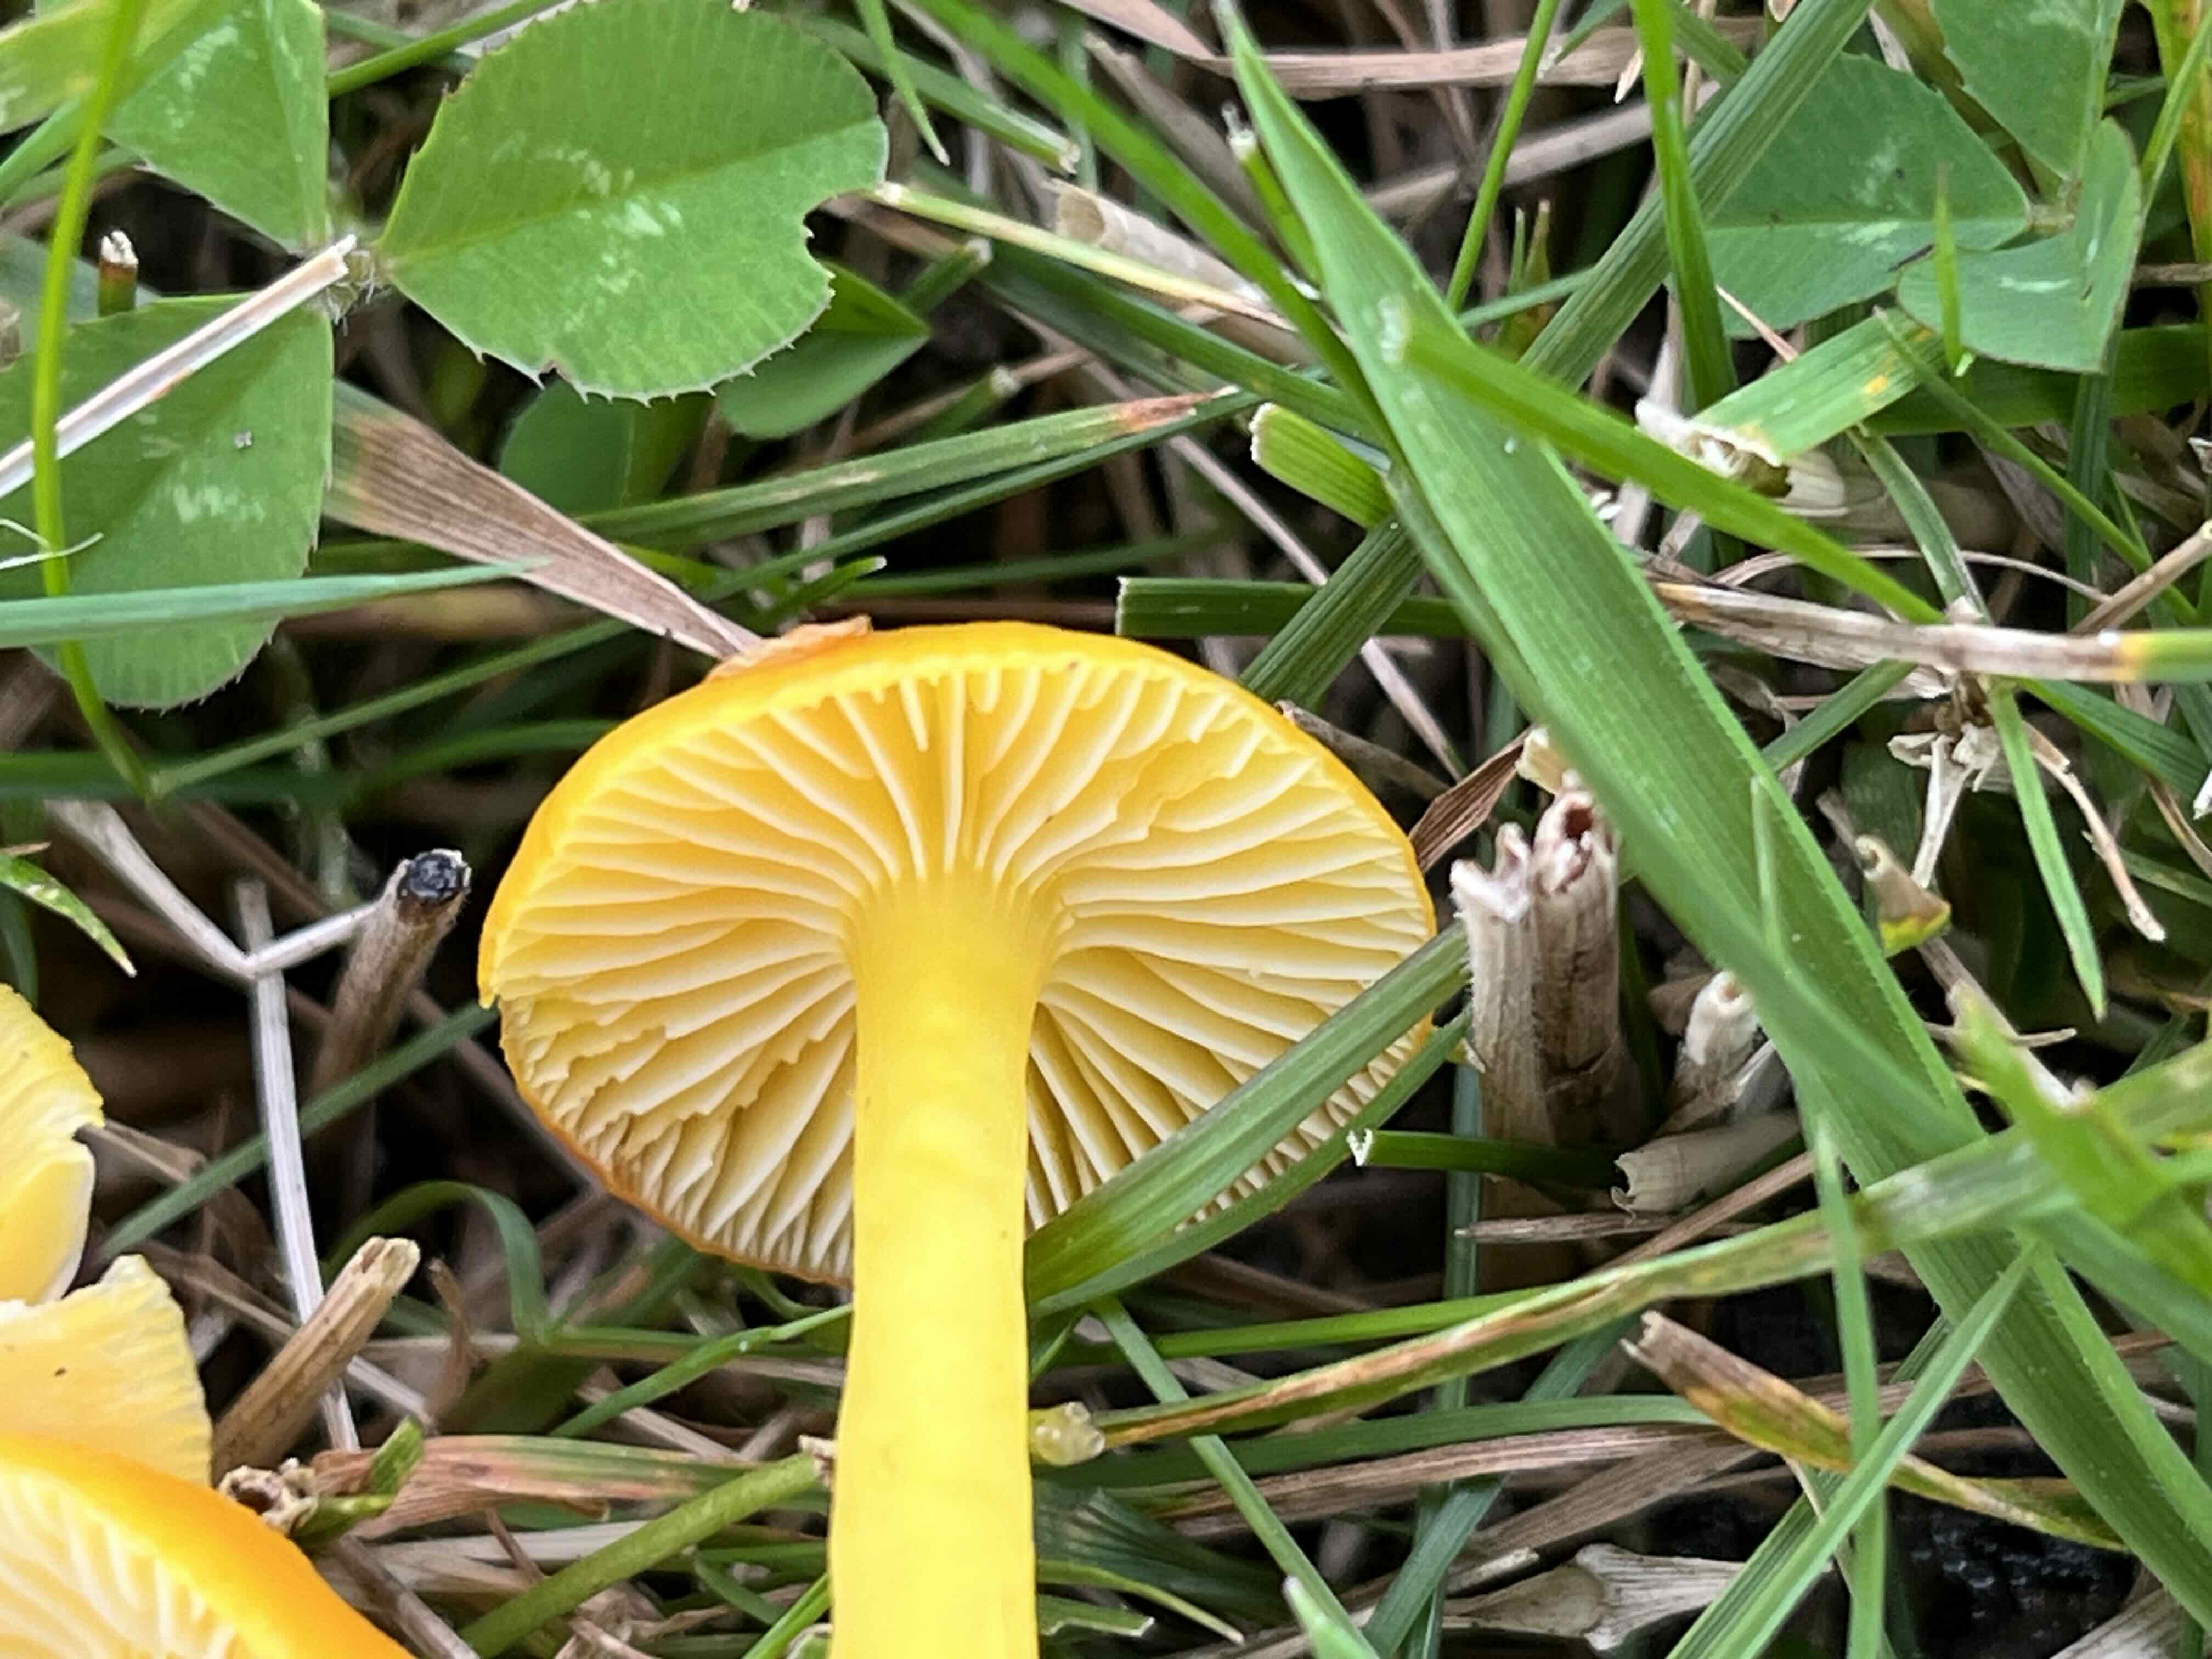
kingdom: Fungi
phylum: Basidiomycota
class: Agaricomycetes
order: Agaricales
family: Hygrophoraceae
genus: Hygrocybe
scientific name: Hygrocybe ceracea
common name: voksgul vokshat
